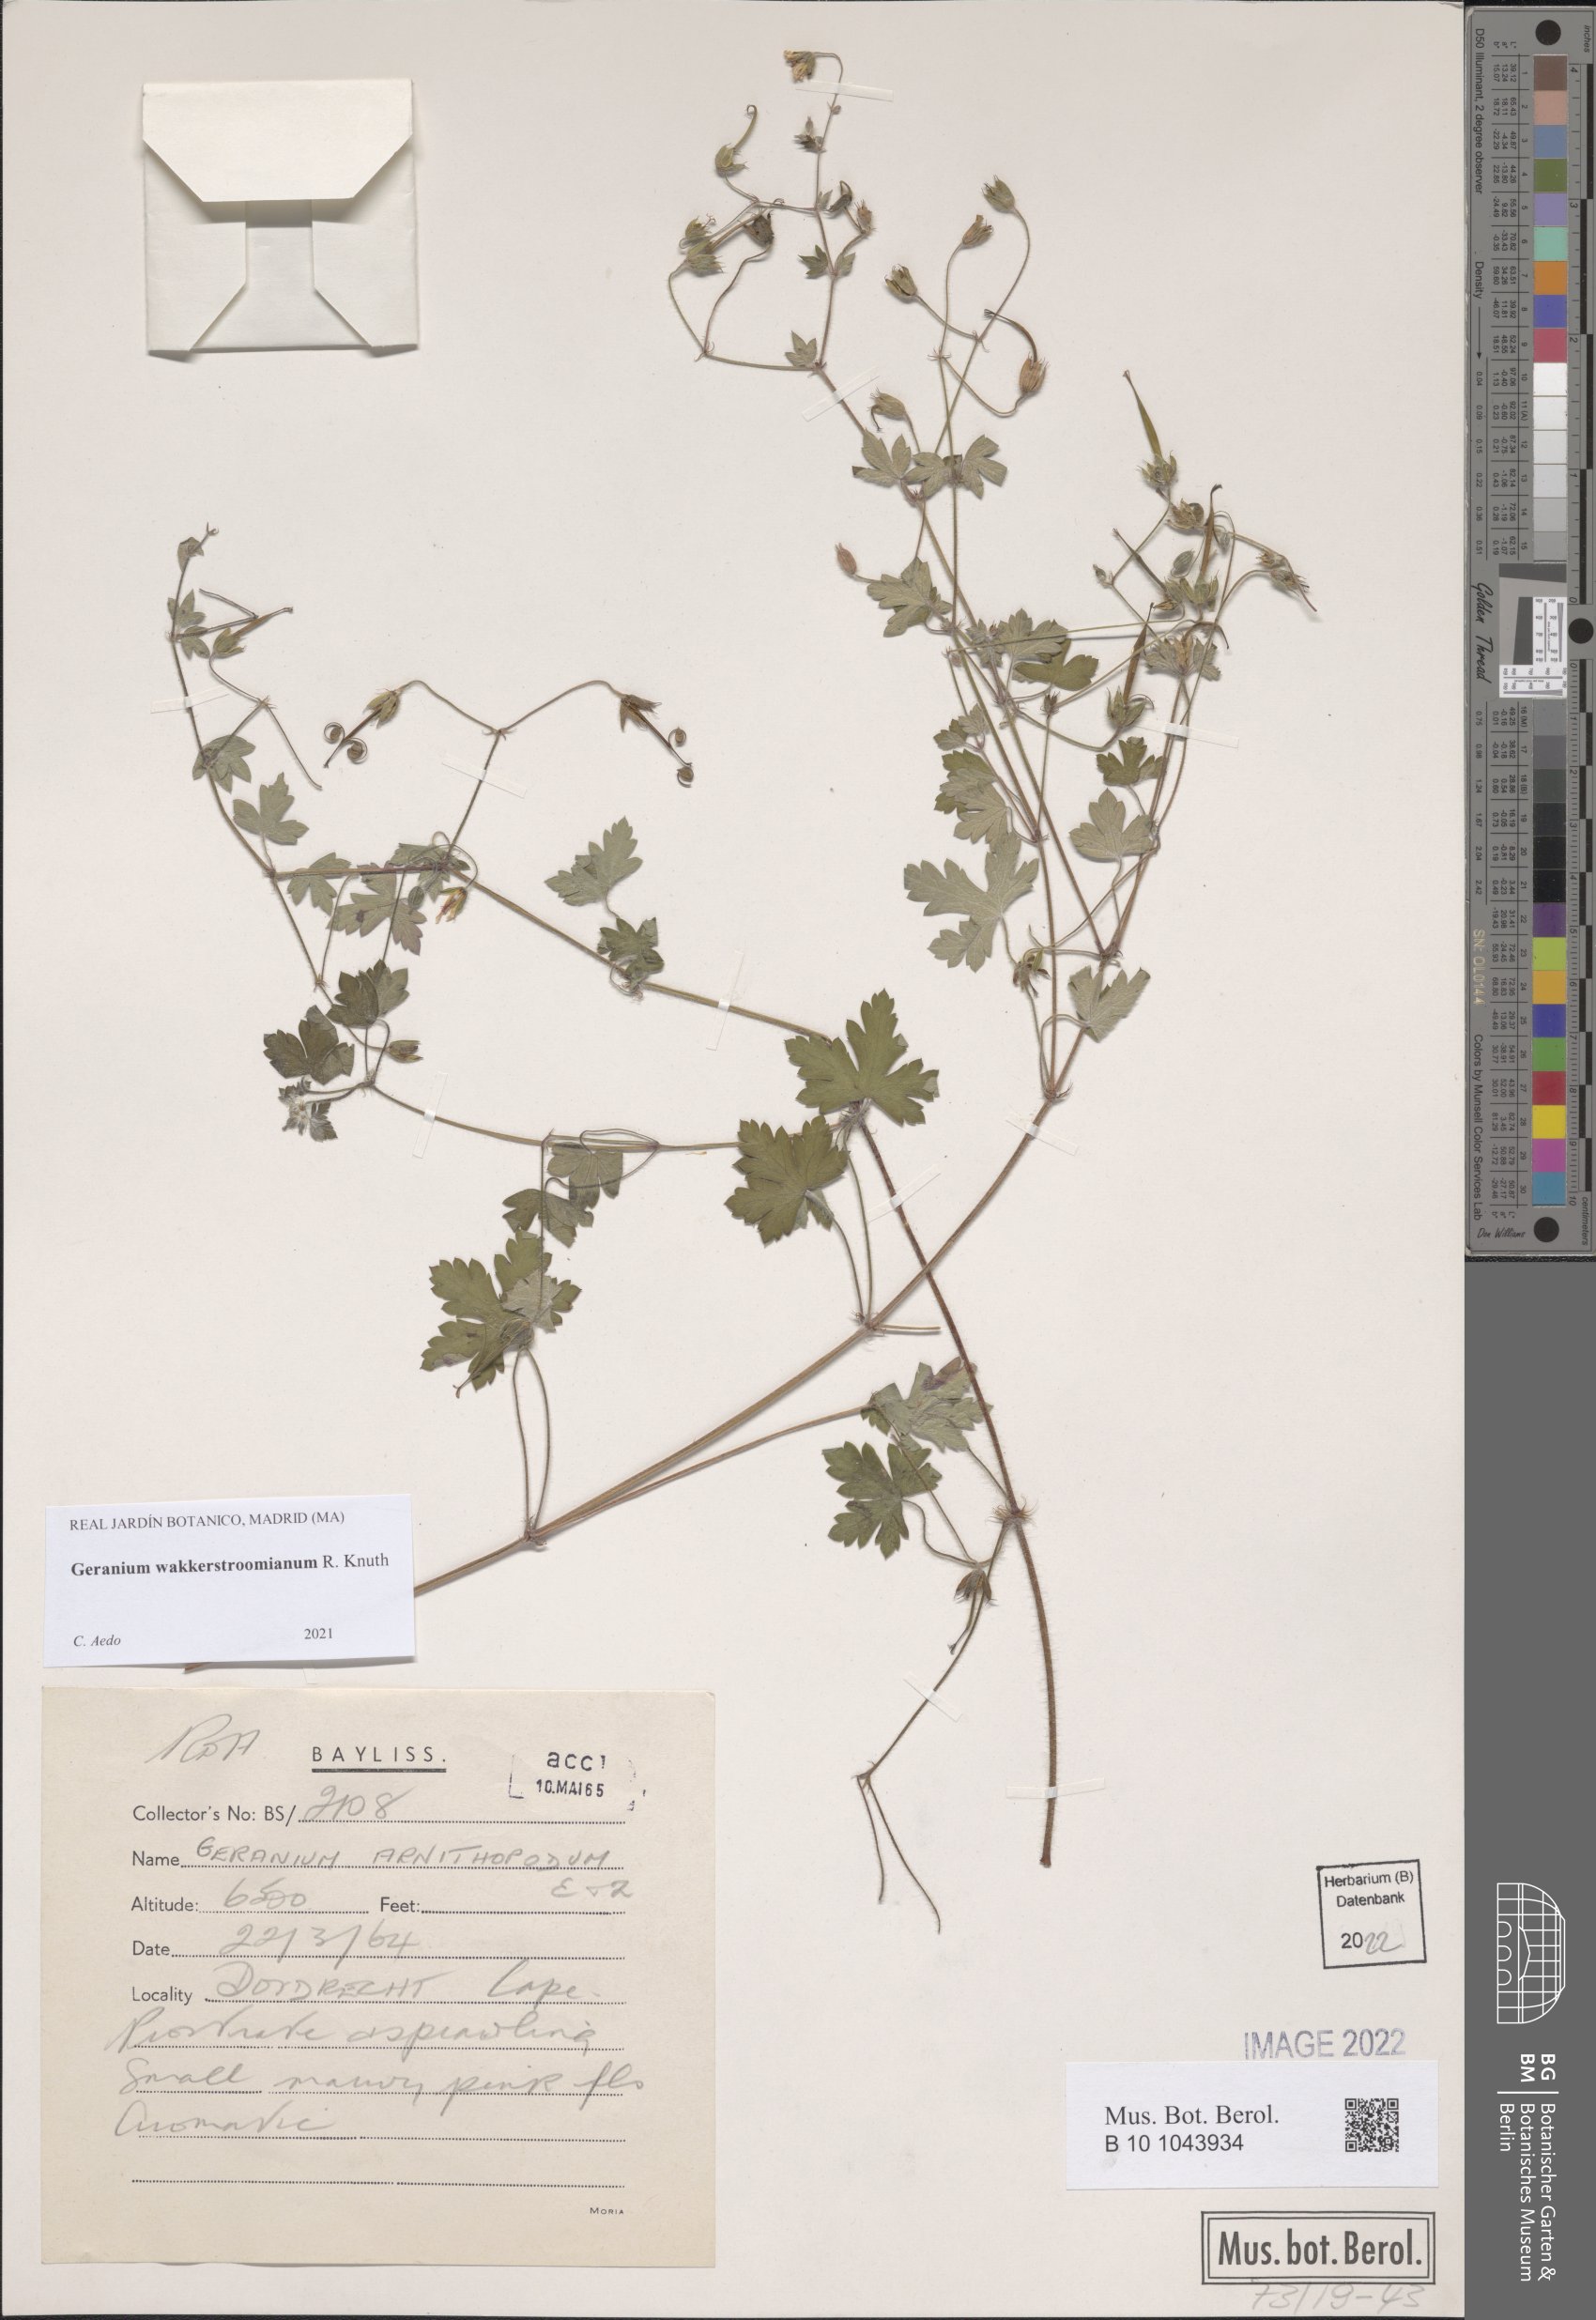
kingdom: Plantae
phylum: Tracheophyta
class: Magnoliopsida
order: Geraniales
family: Geraniaceae
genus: Geranium
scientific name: Geranium wakkerstroomianum
